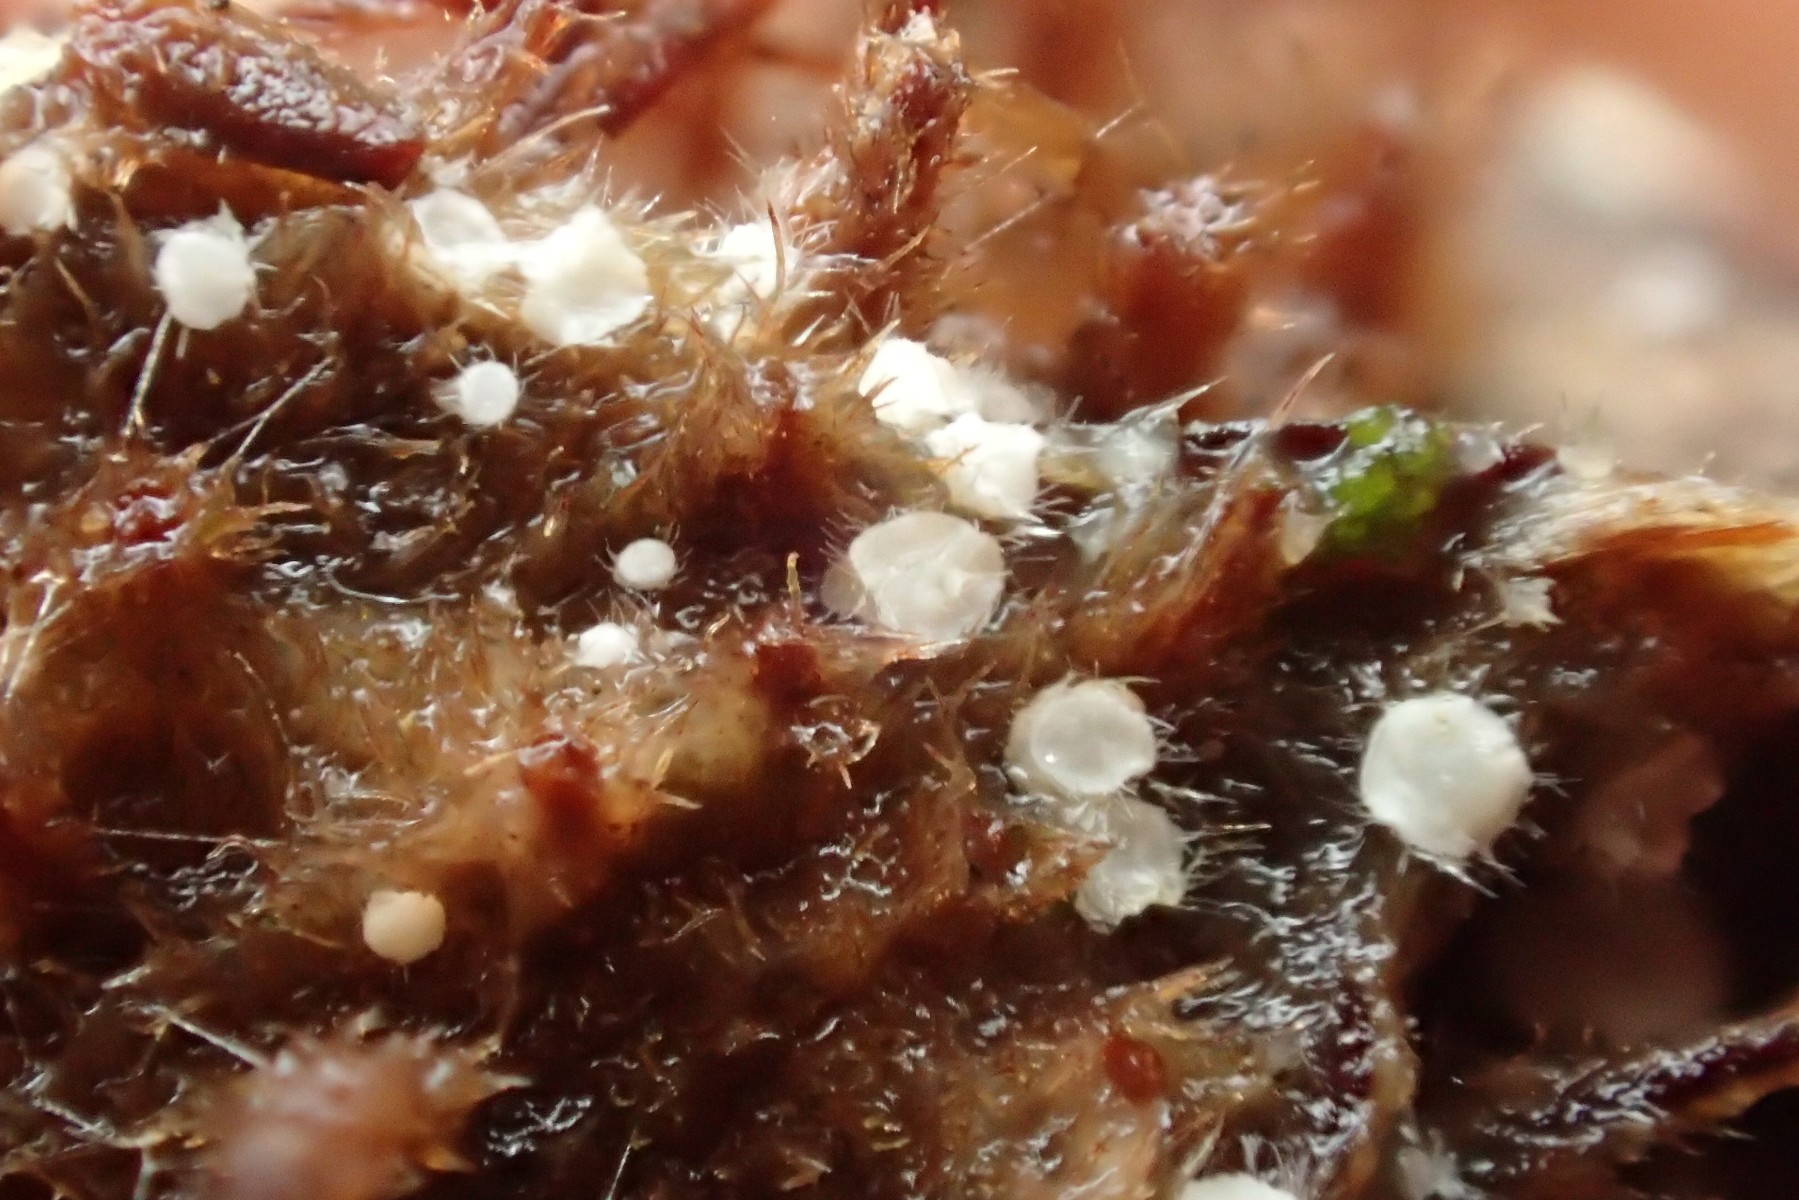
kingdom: Fungi
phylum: Ascomycota
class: Sordariomycetes
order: Hypocreales
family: Nectriaceae
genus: Volutella
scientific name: Volutella
